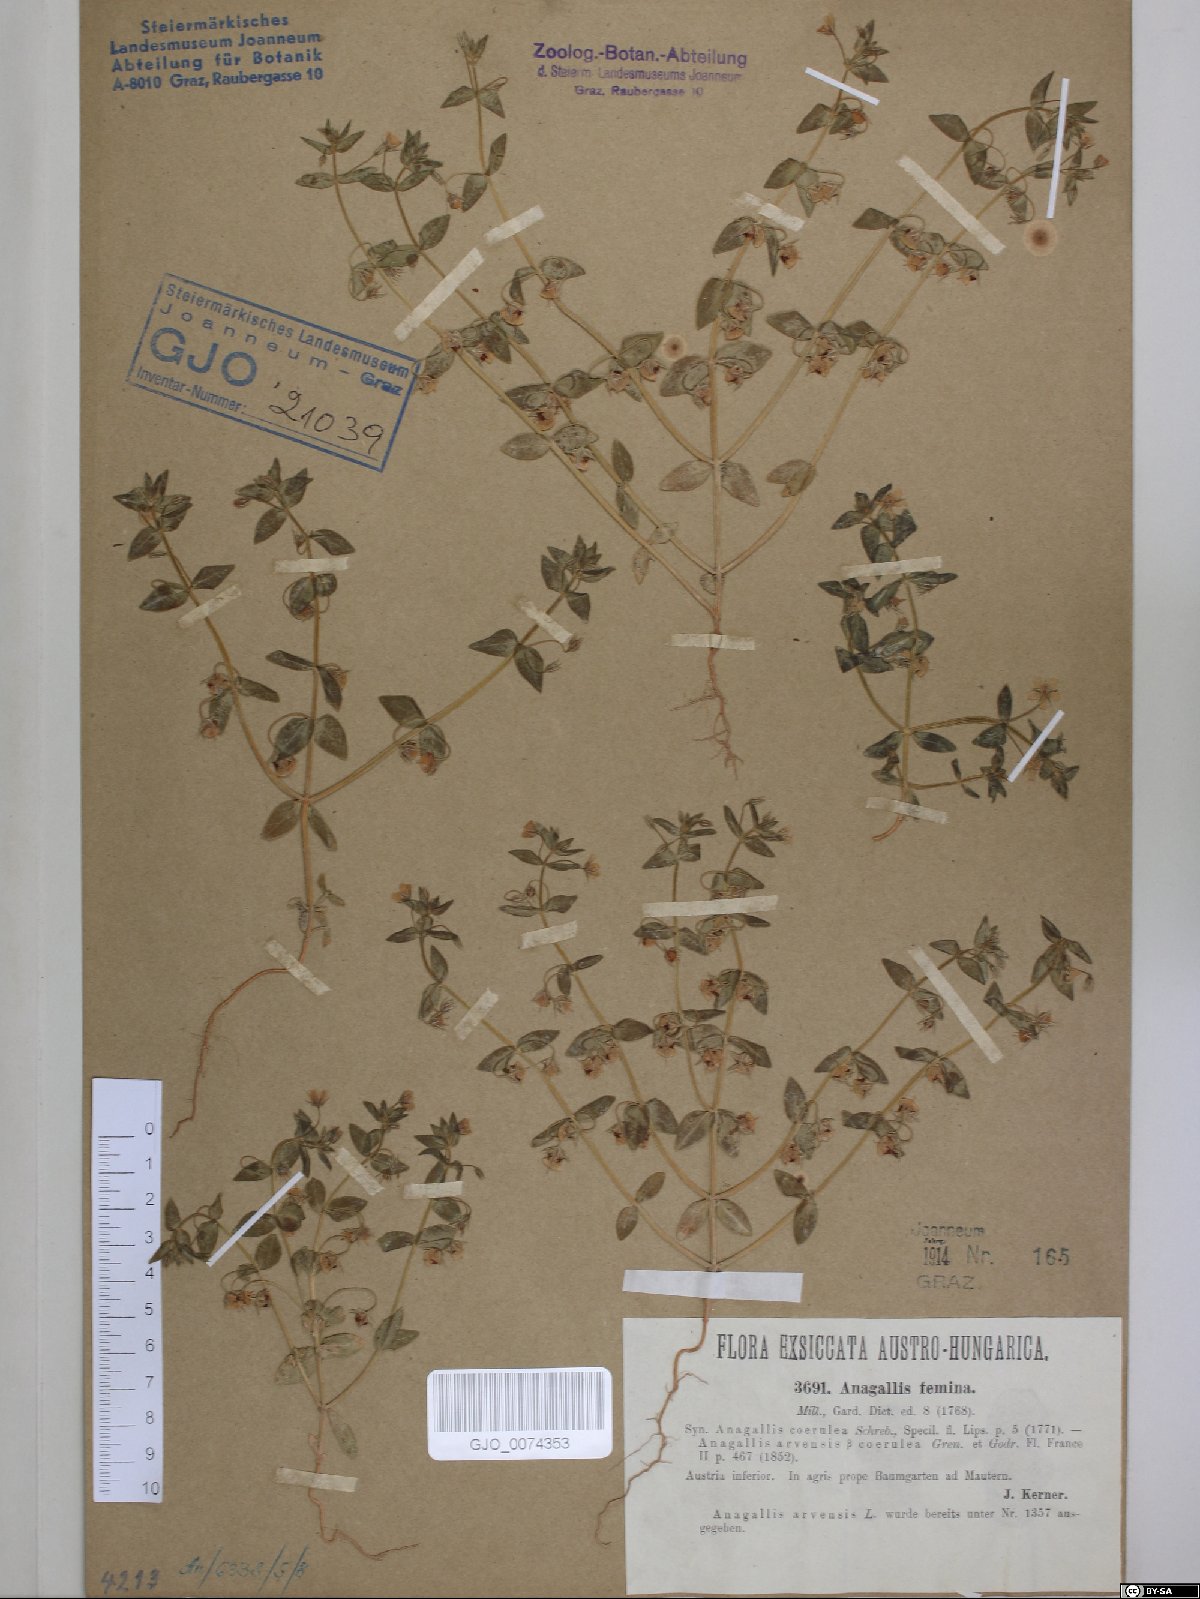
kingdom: Plantae
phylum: Tracheophyta
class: Magnoliopsida
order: Ericales
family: Primulaceae
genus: Lysimachia
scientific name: Lysimachia foemina
